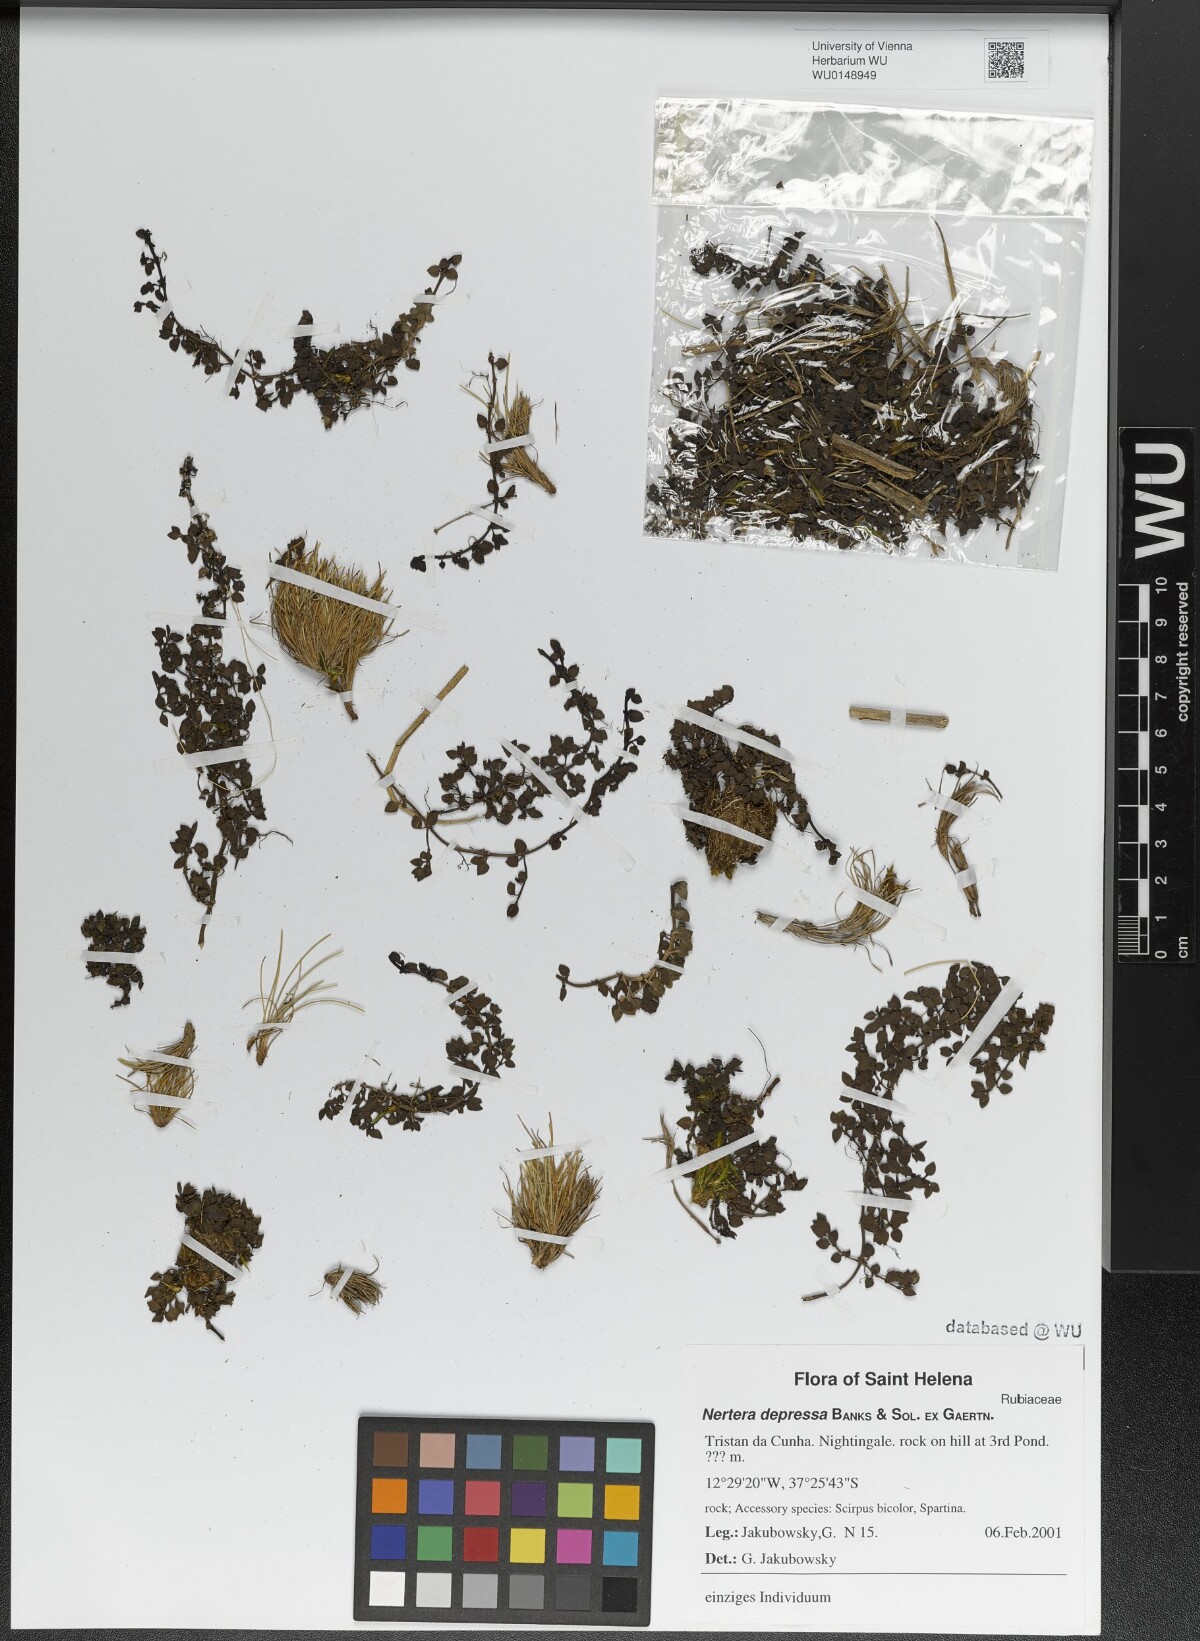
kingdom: Plantae
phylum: Tracheophyta
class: Magnoliopsida
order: Gentianales
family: Rubiaceae
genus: Nertera
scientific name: Nertera granadensis
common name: Beadplant
